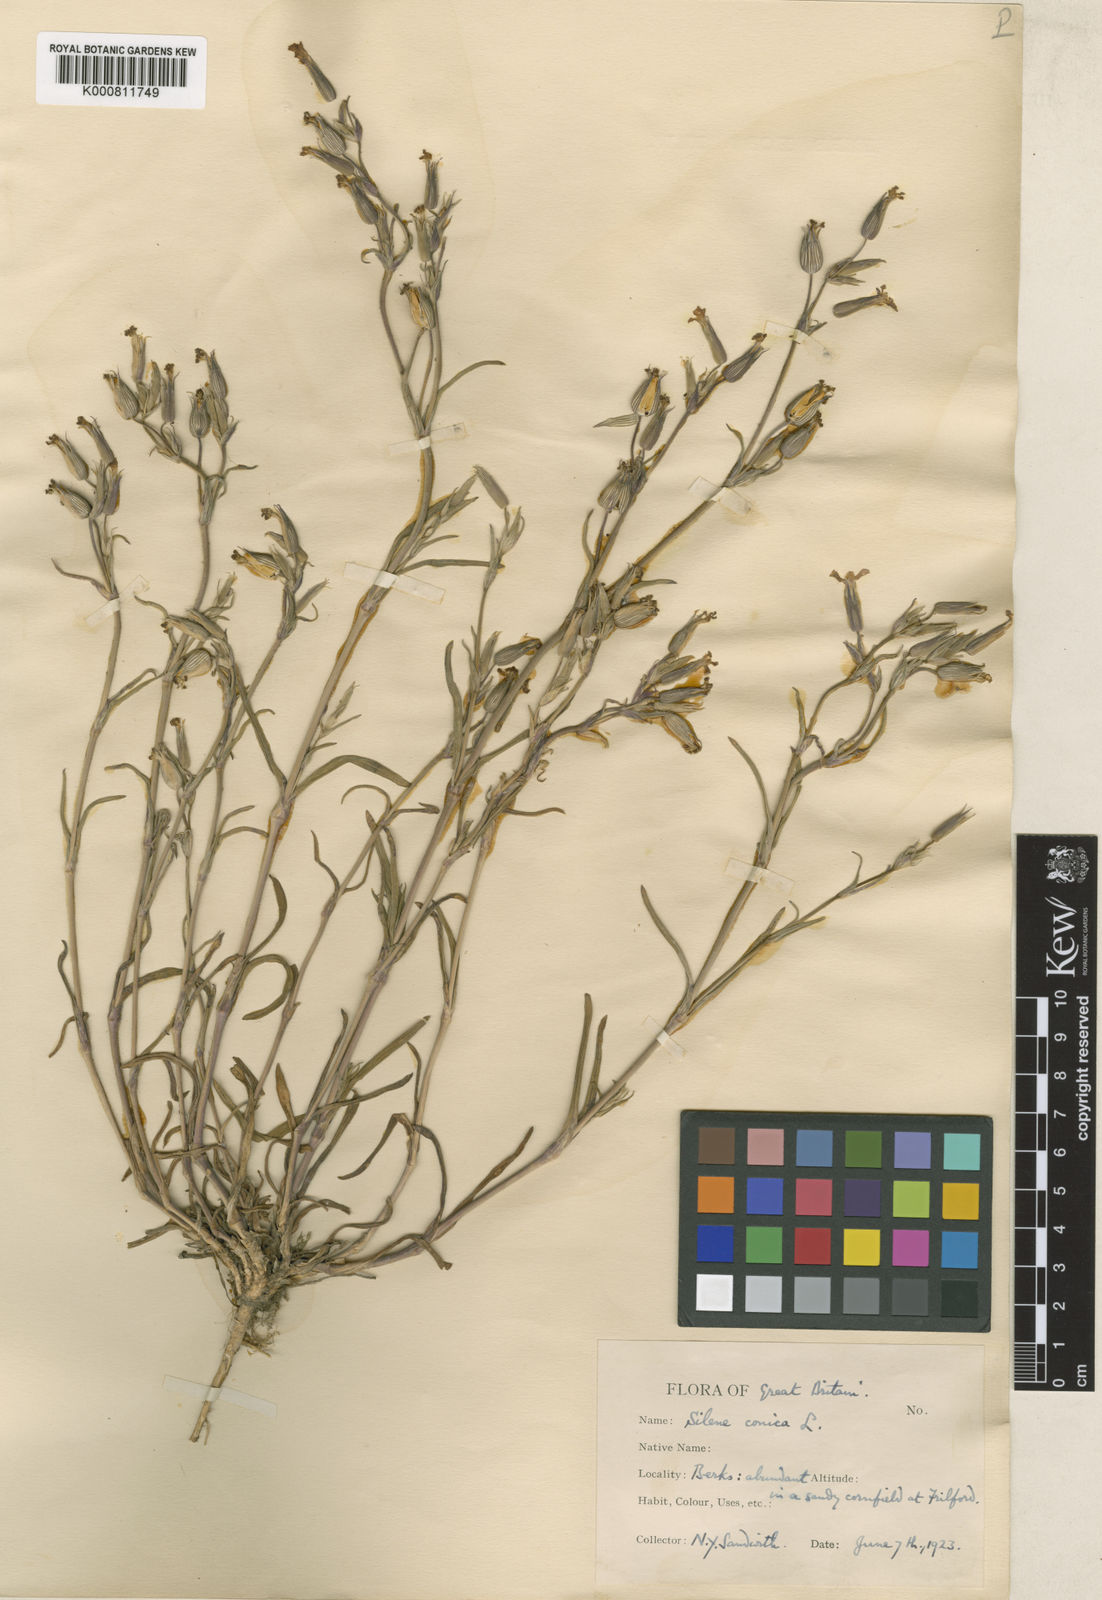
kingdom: Plantae
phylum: Tracheophyta
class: Magnoliopsida
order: Caryophyllales
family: Caryophyllaceae
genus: Silene
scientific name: Silene conica
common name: Sand catchfly
